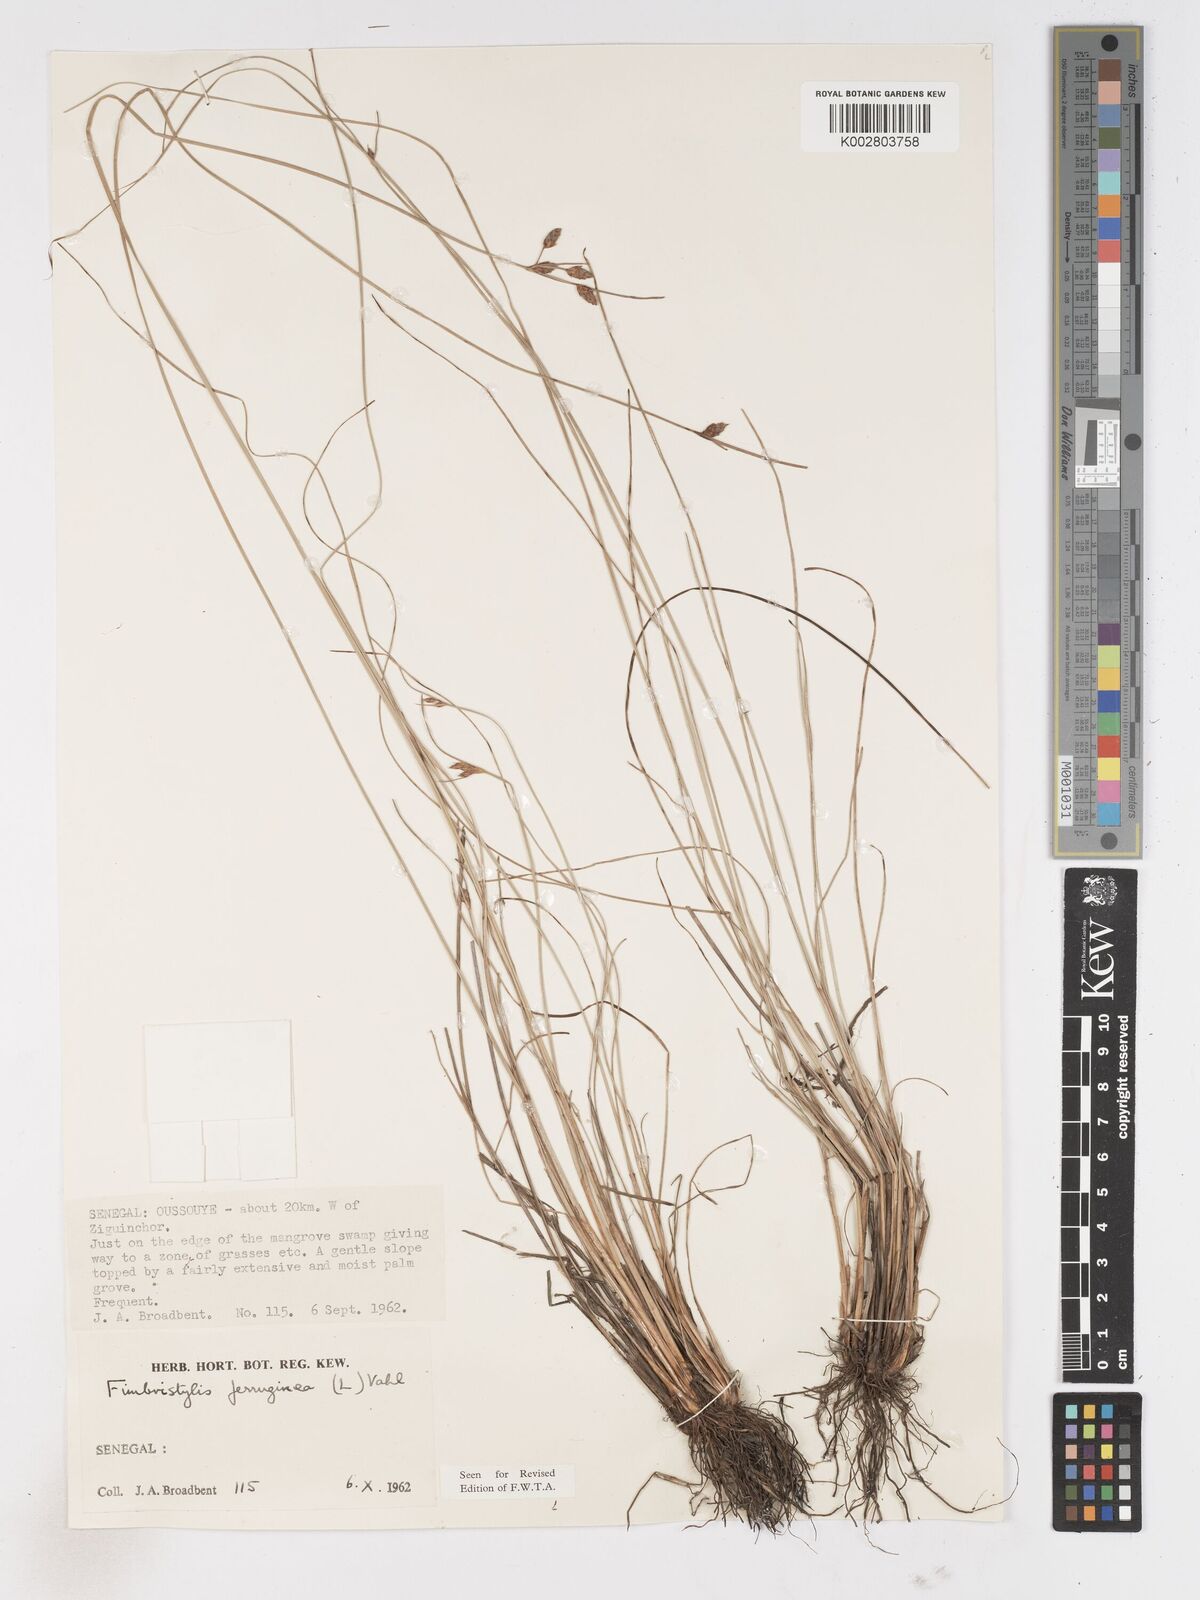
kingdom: Plantae
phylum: Tracheophyta
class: Liliopsida
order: Poales
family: Cyperaceae
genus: Fimbristylis
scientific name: Fimbristylis ferruginea
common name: West indian fimbry
